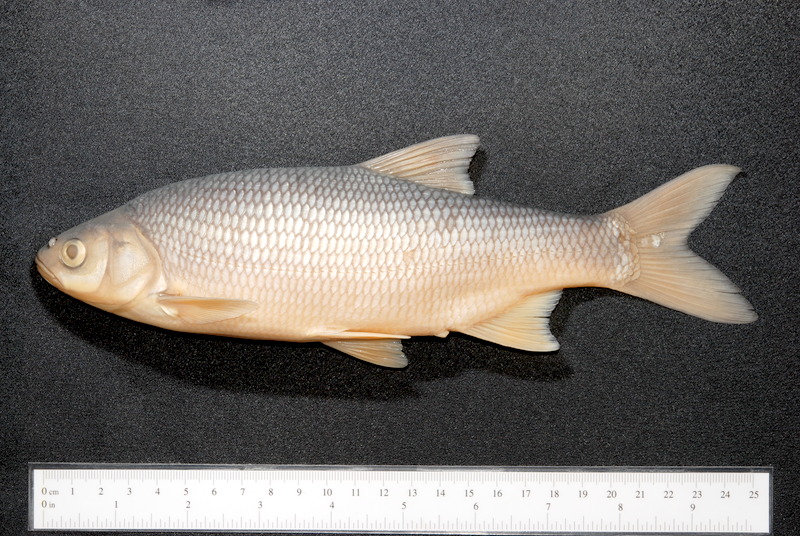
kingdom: Animalia
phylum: Chordata
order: Cypriniformes
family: Cyprinidae
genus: Leuciscus
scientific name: Leuciscus idus
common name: Ide
